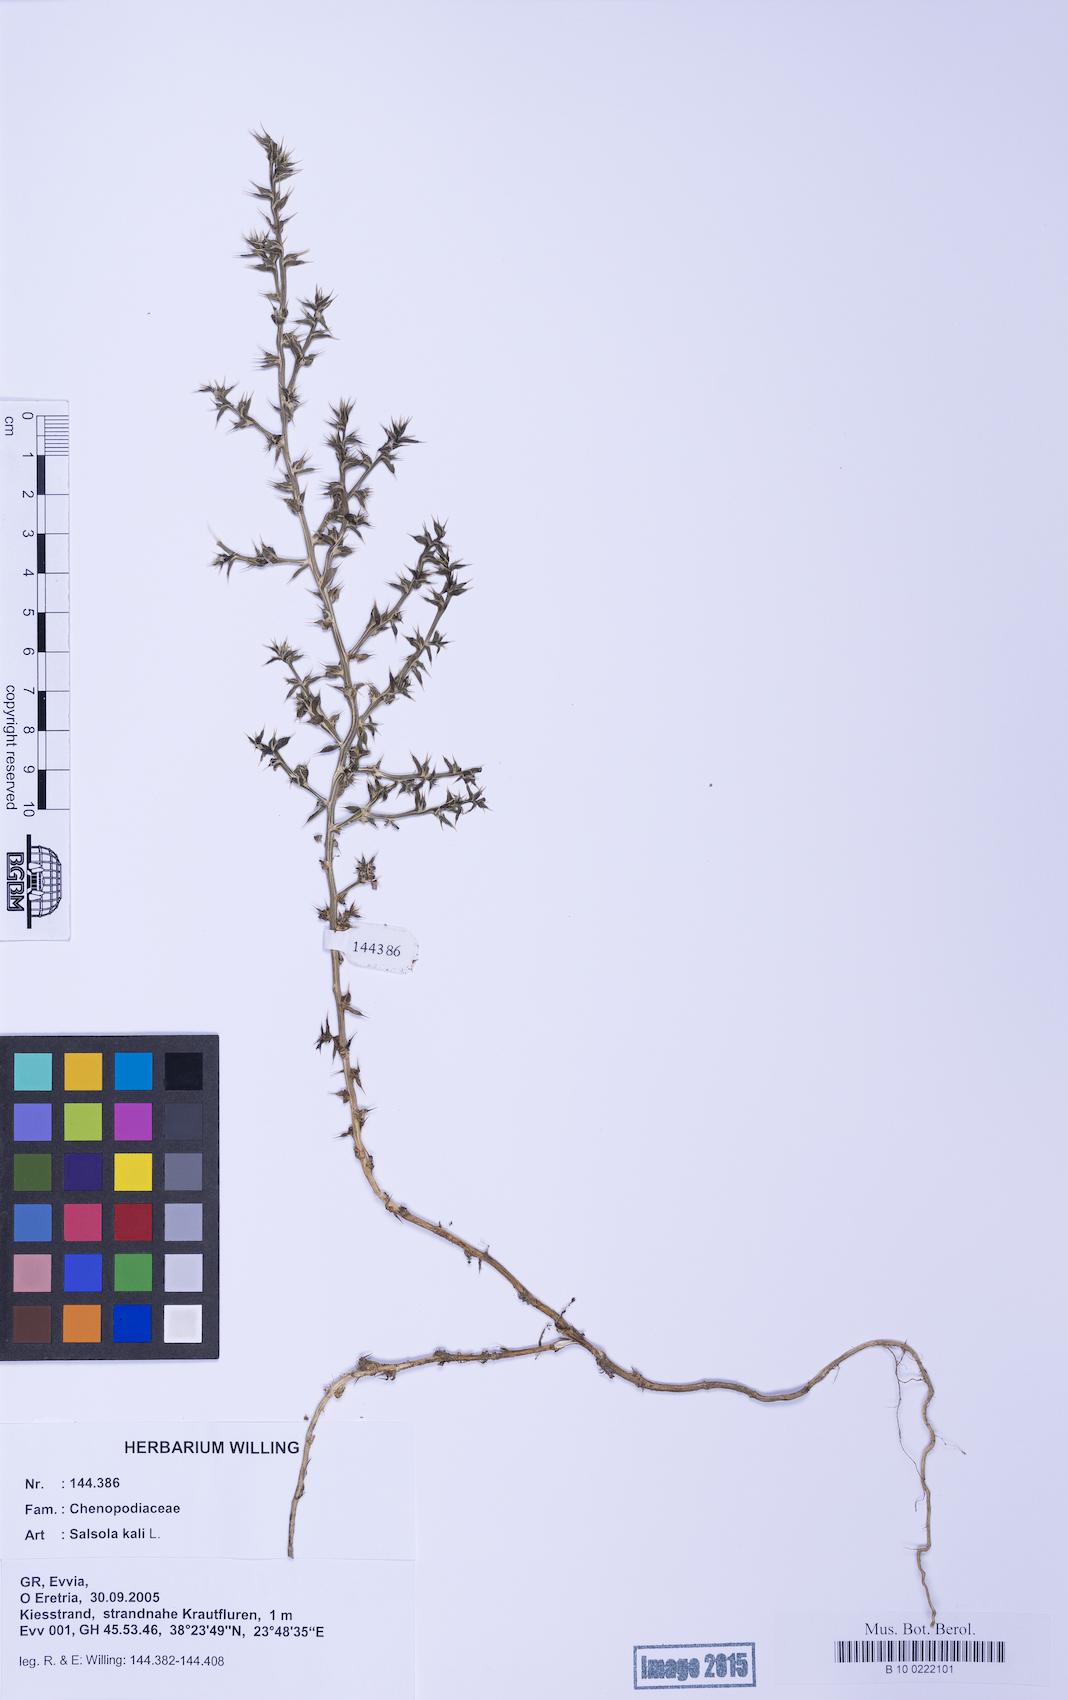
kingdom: Plantae
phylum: Tracheophyta
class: Magnoliopsida
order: Caryophyllales
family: Amaranthaceae
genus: Salsola
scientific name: Salsola kali
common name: Saltwort
